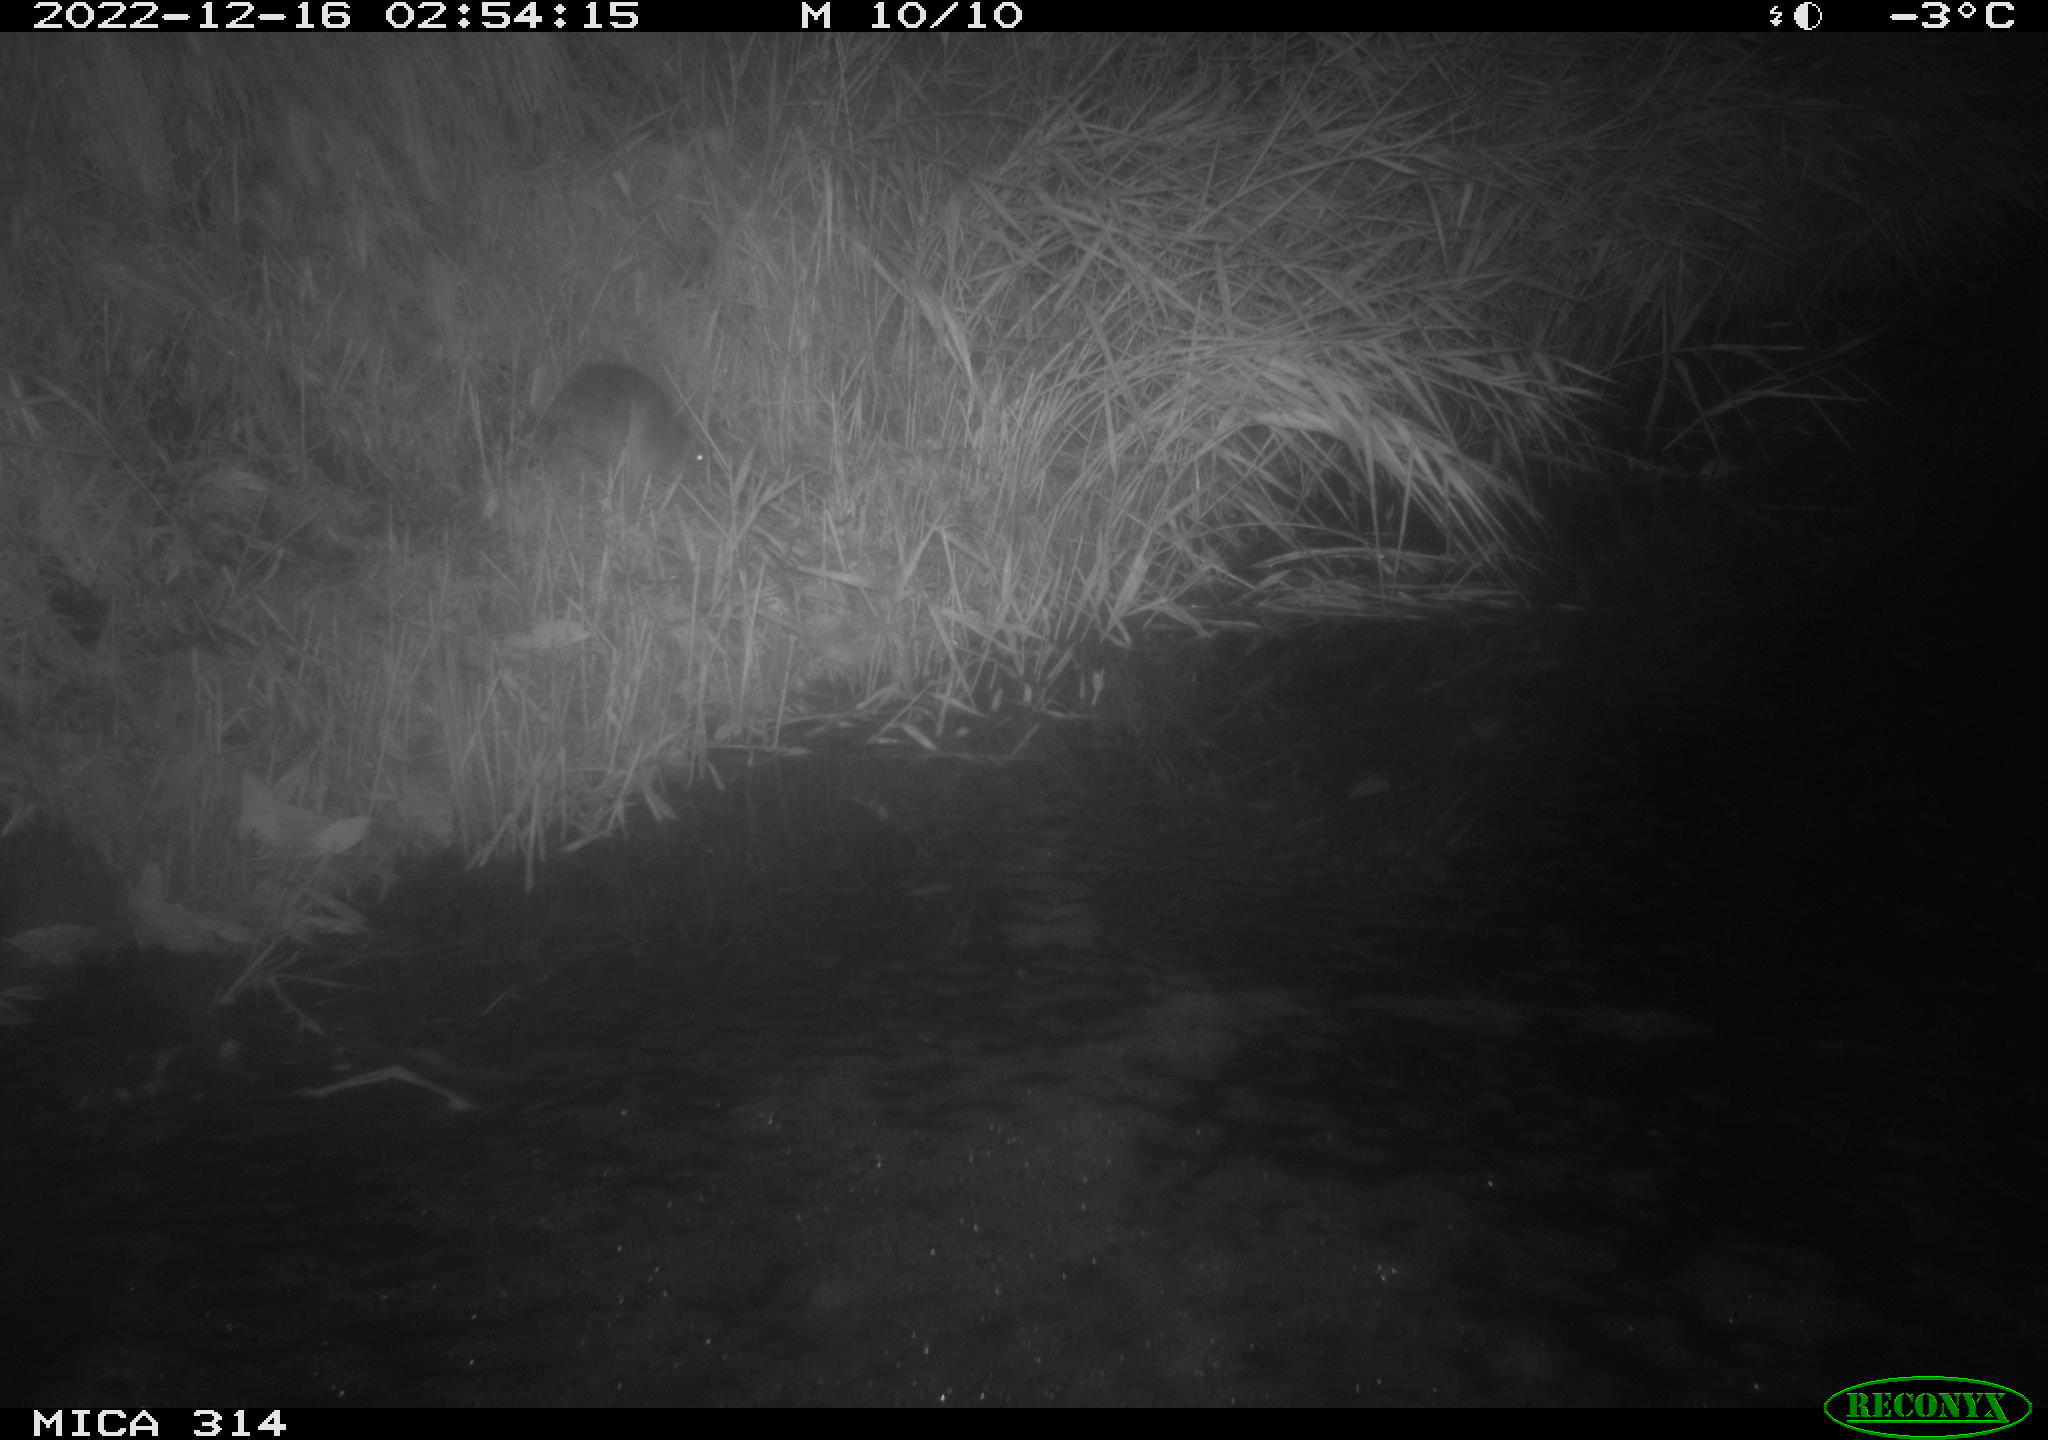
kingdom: Animalia
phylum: Chordata
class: Mammalia
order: Rodentia
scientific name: Rodentia
